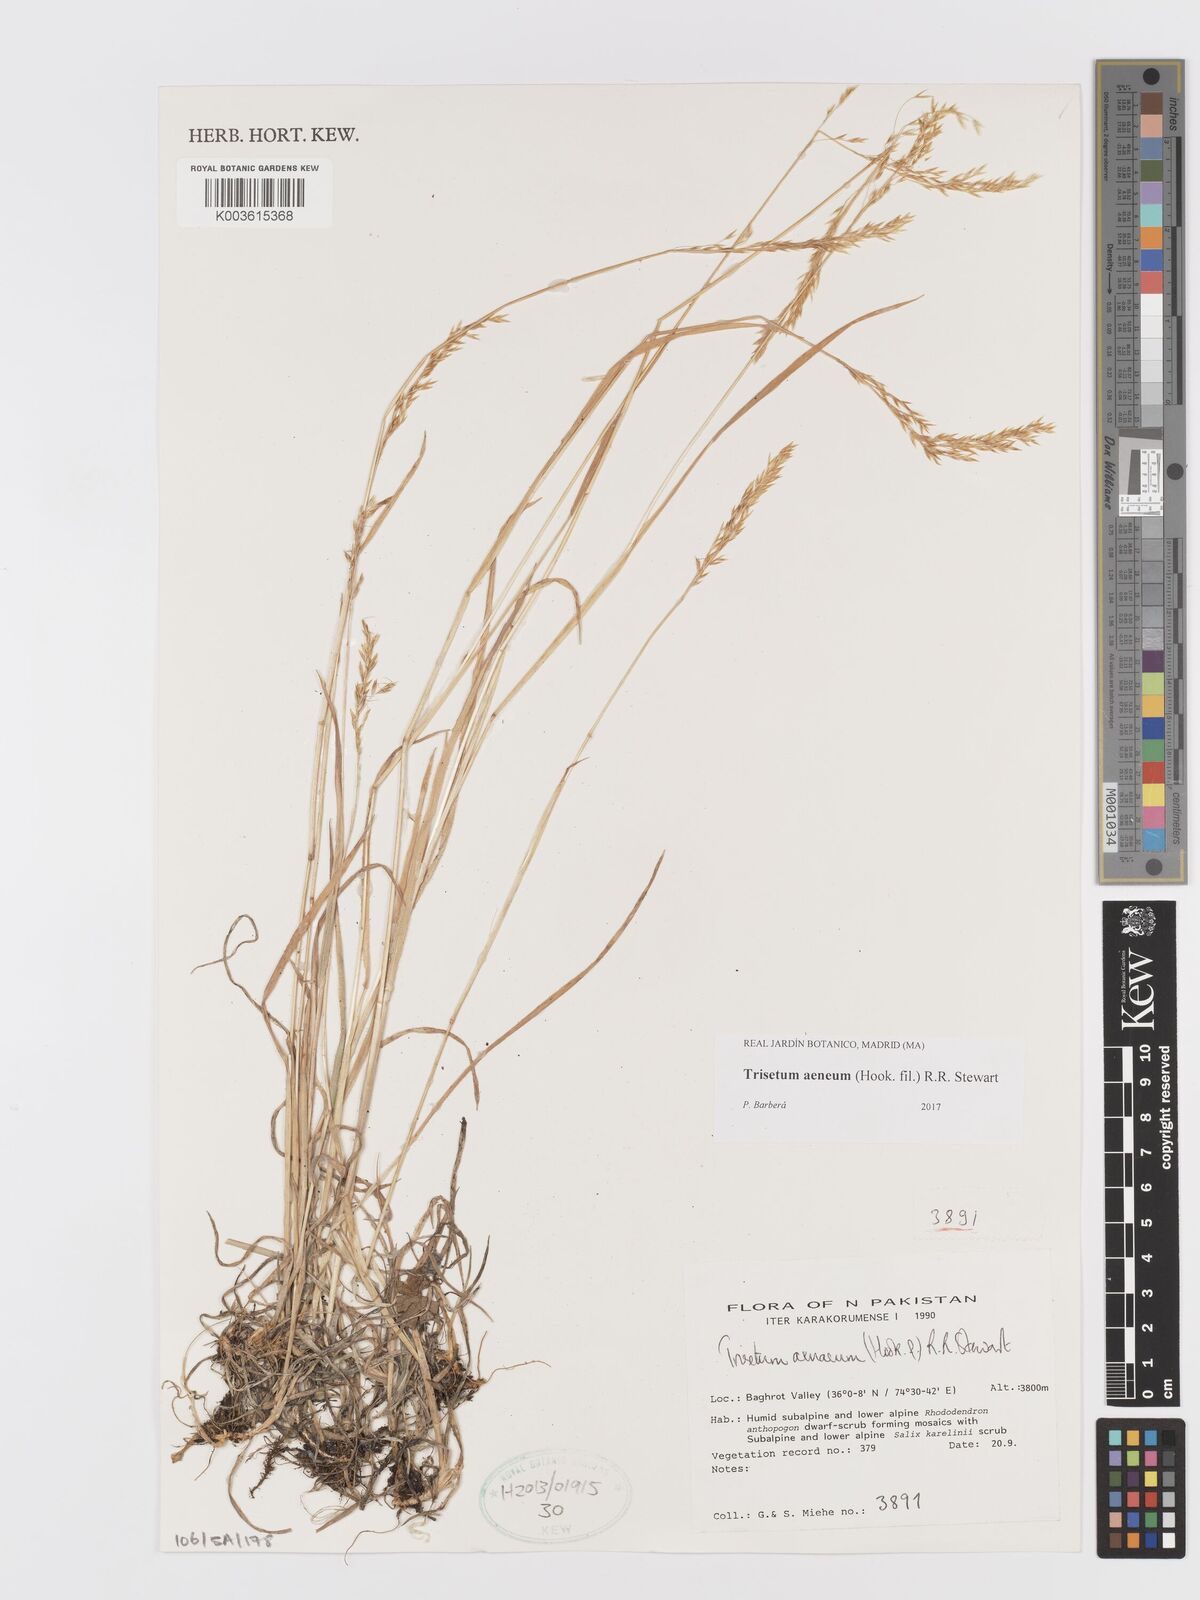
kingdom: Plantae
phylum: Tracheophyta
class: Liliopsida
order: Poales
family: Poaceae
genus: Sibirotrisetum
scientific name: Sibirotrisetum aeneum
